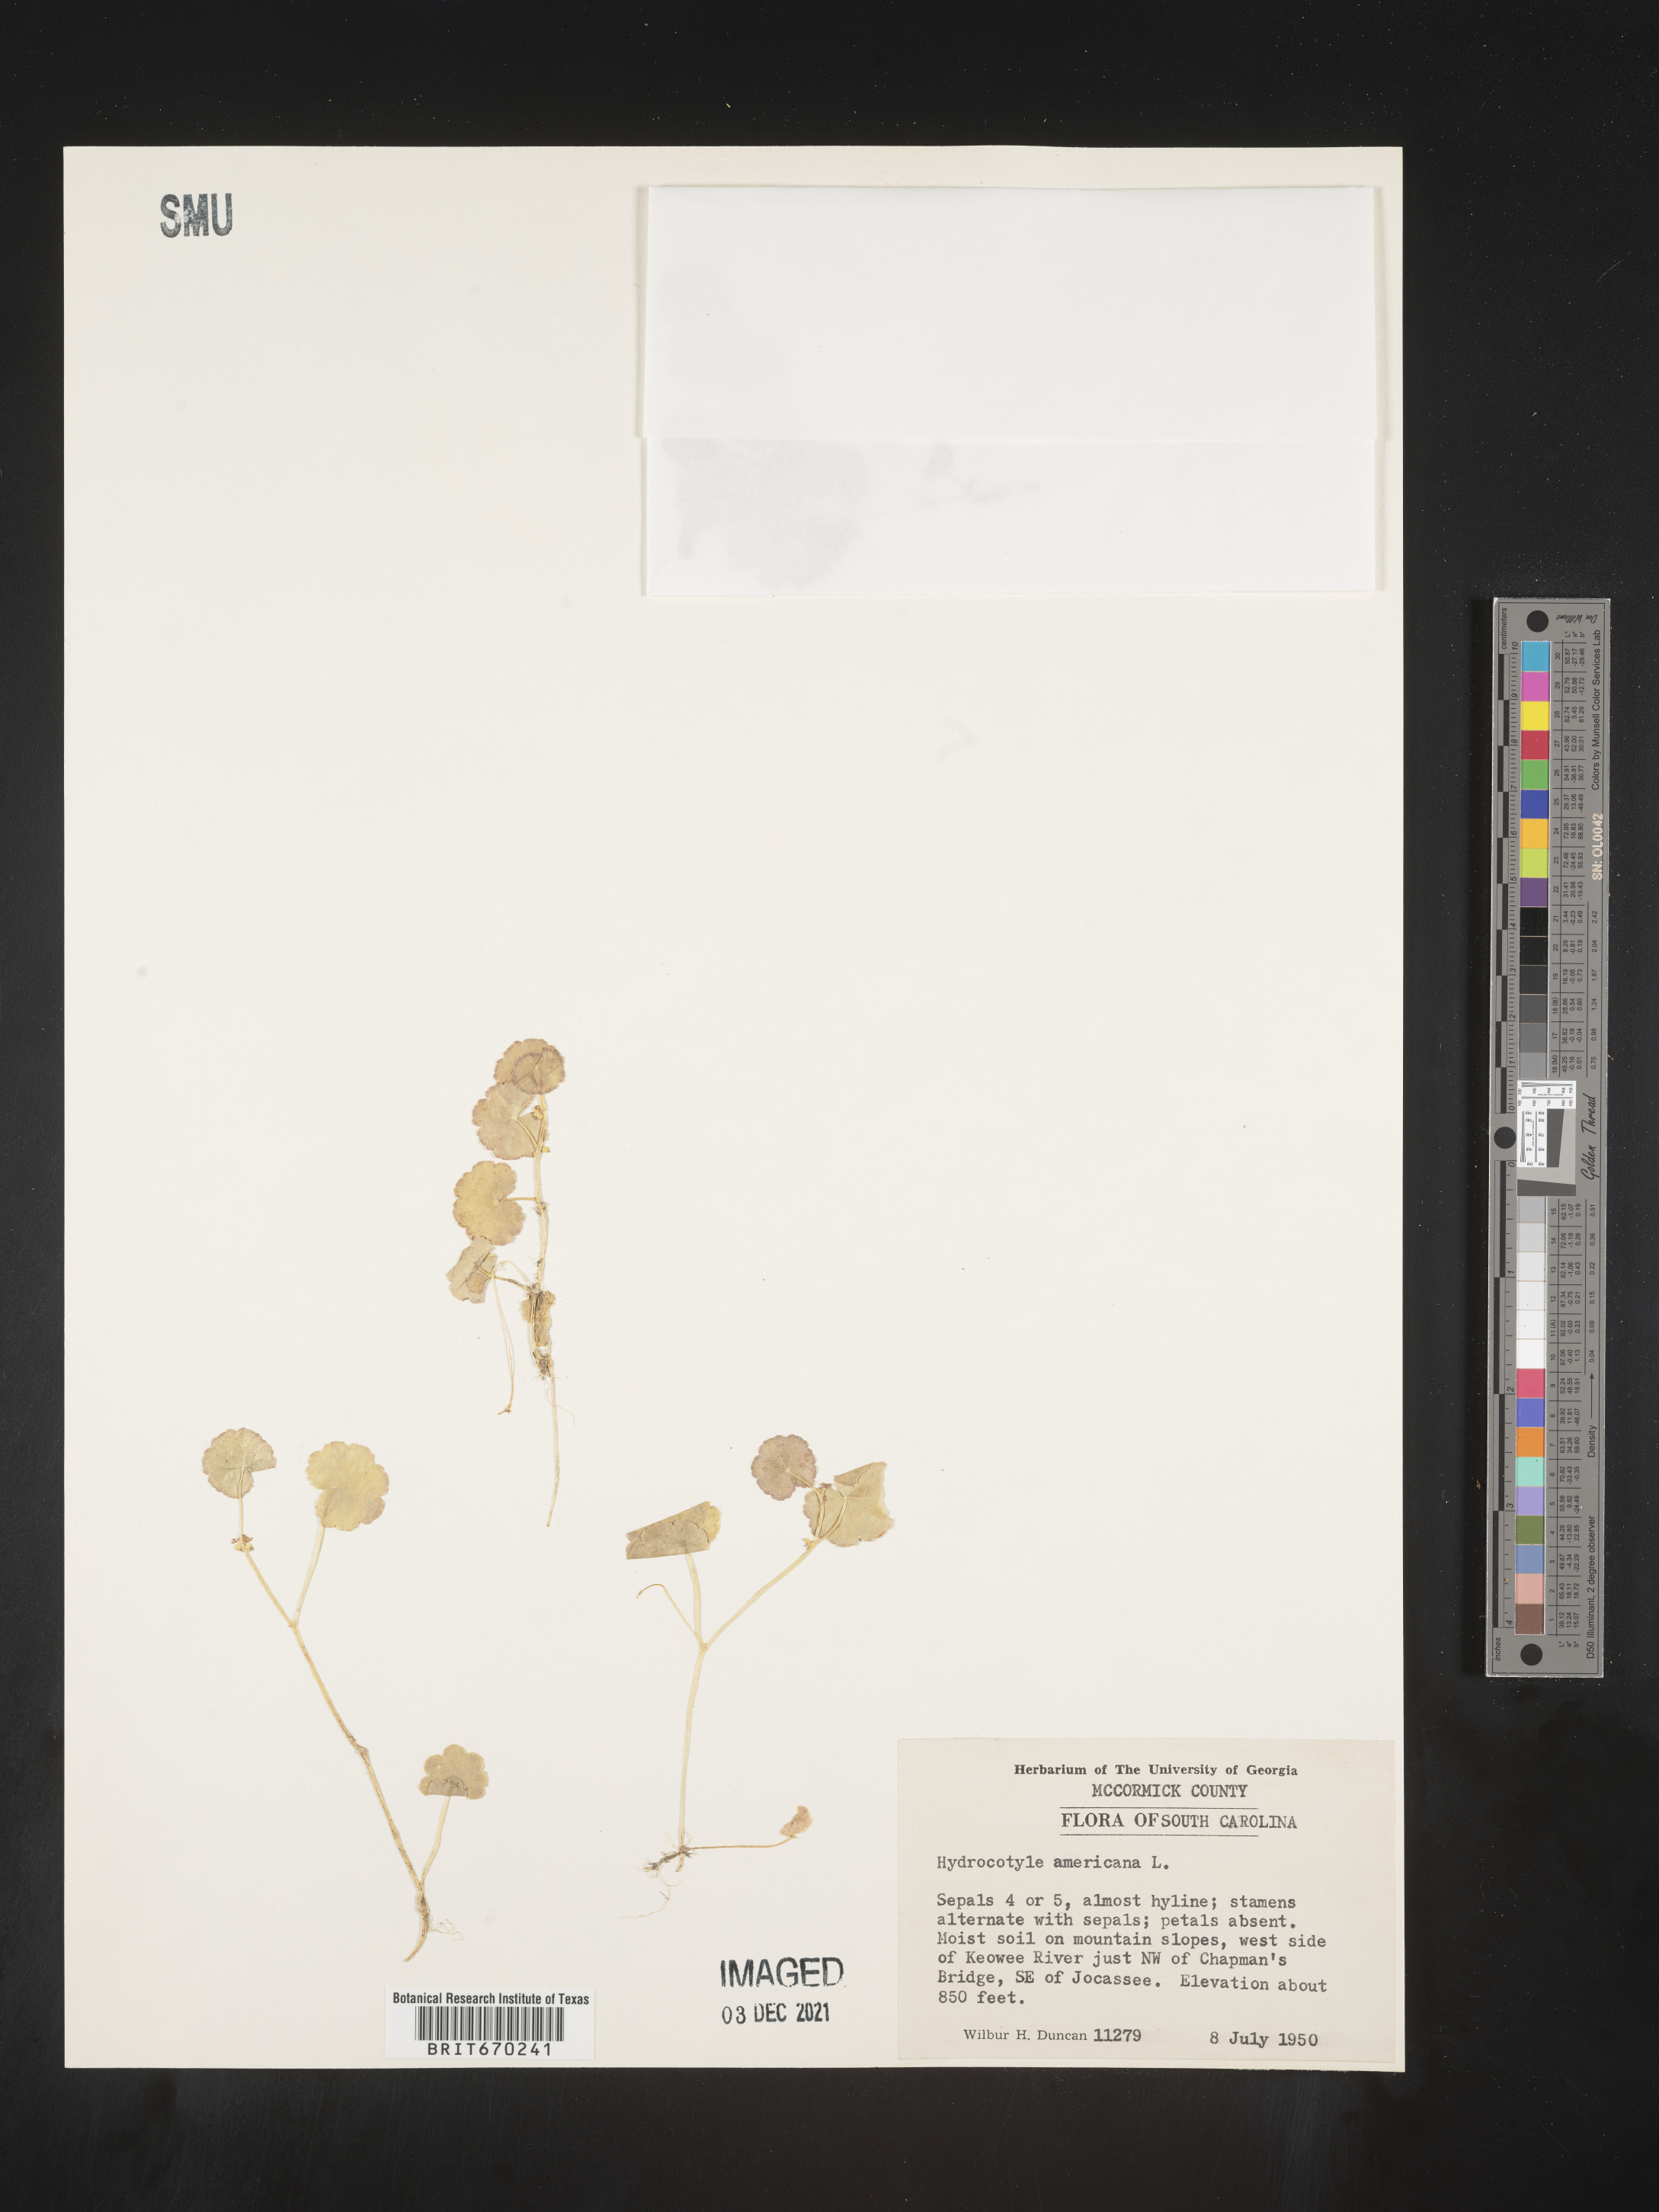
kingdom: Plantae
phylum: Tracheophyta
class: Magnoliopsida
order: Apiales
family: Araliaceae
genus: Hydrocotyle
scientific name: Hydrocotyle
